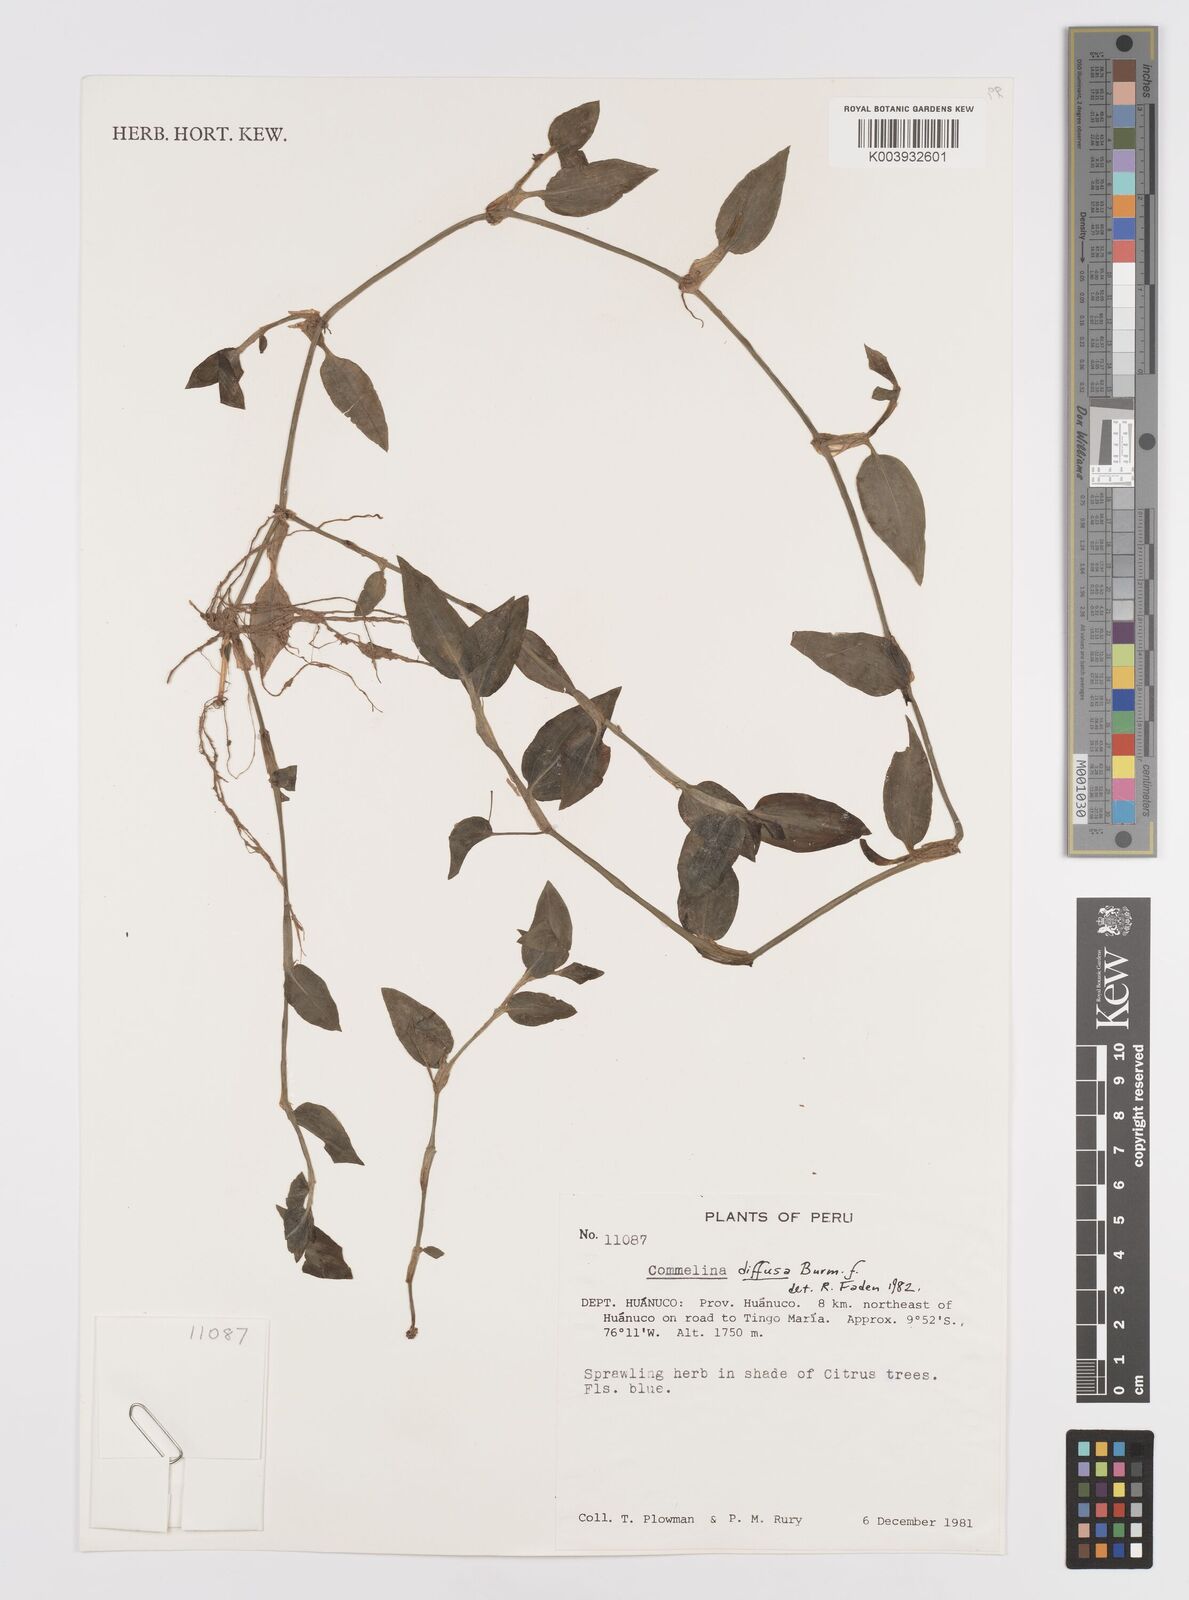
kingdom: Plantae
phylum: Tracheophyta
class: Liliopsida
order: Commelinales
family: Commelinaceae
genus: Commelina
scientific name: Commelina diffusa
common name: Climbing dayflower
